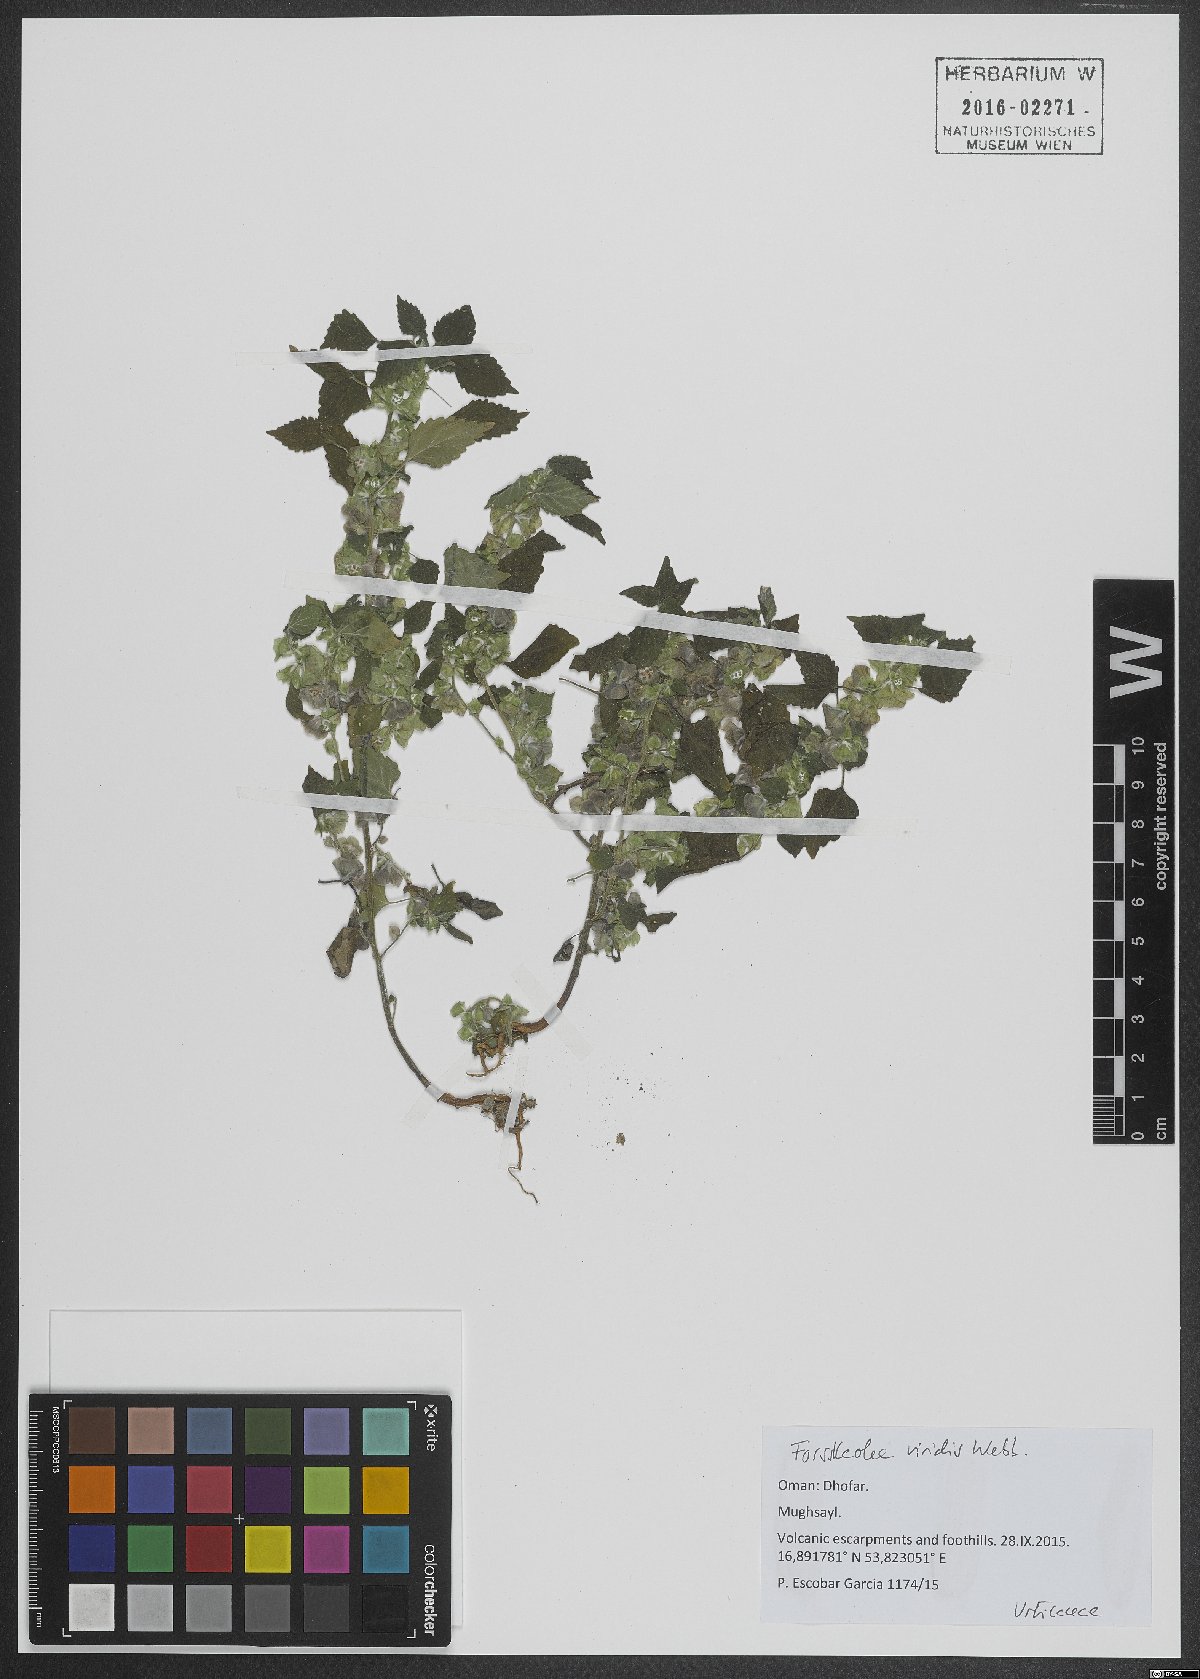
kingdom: Plantae
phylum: Tracheophyta
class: Magnoliopsida
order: Rosales
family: Urticaceae
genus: Forsskaolea
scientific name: Forsskaolea viridis
